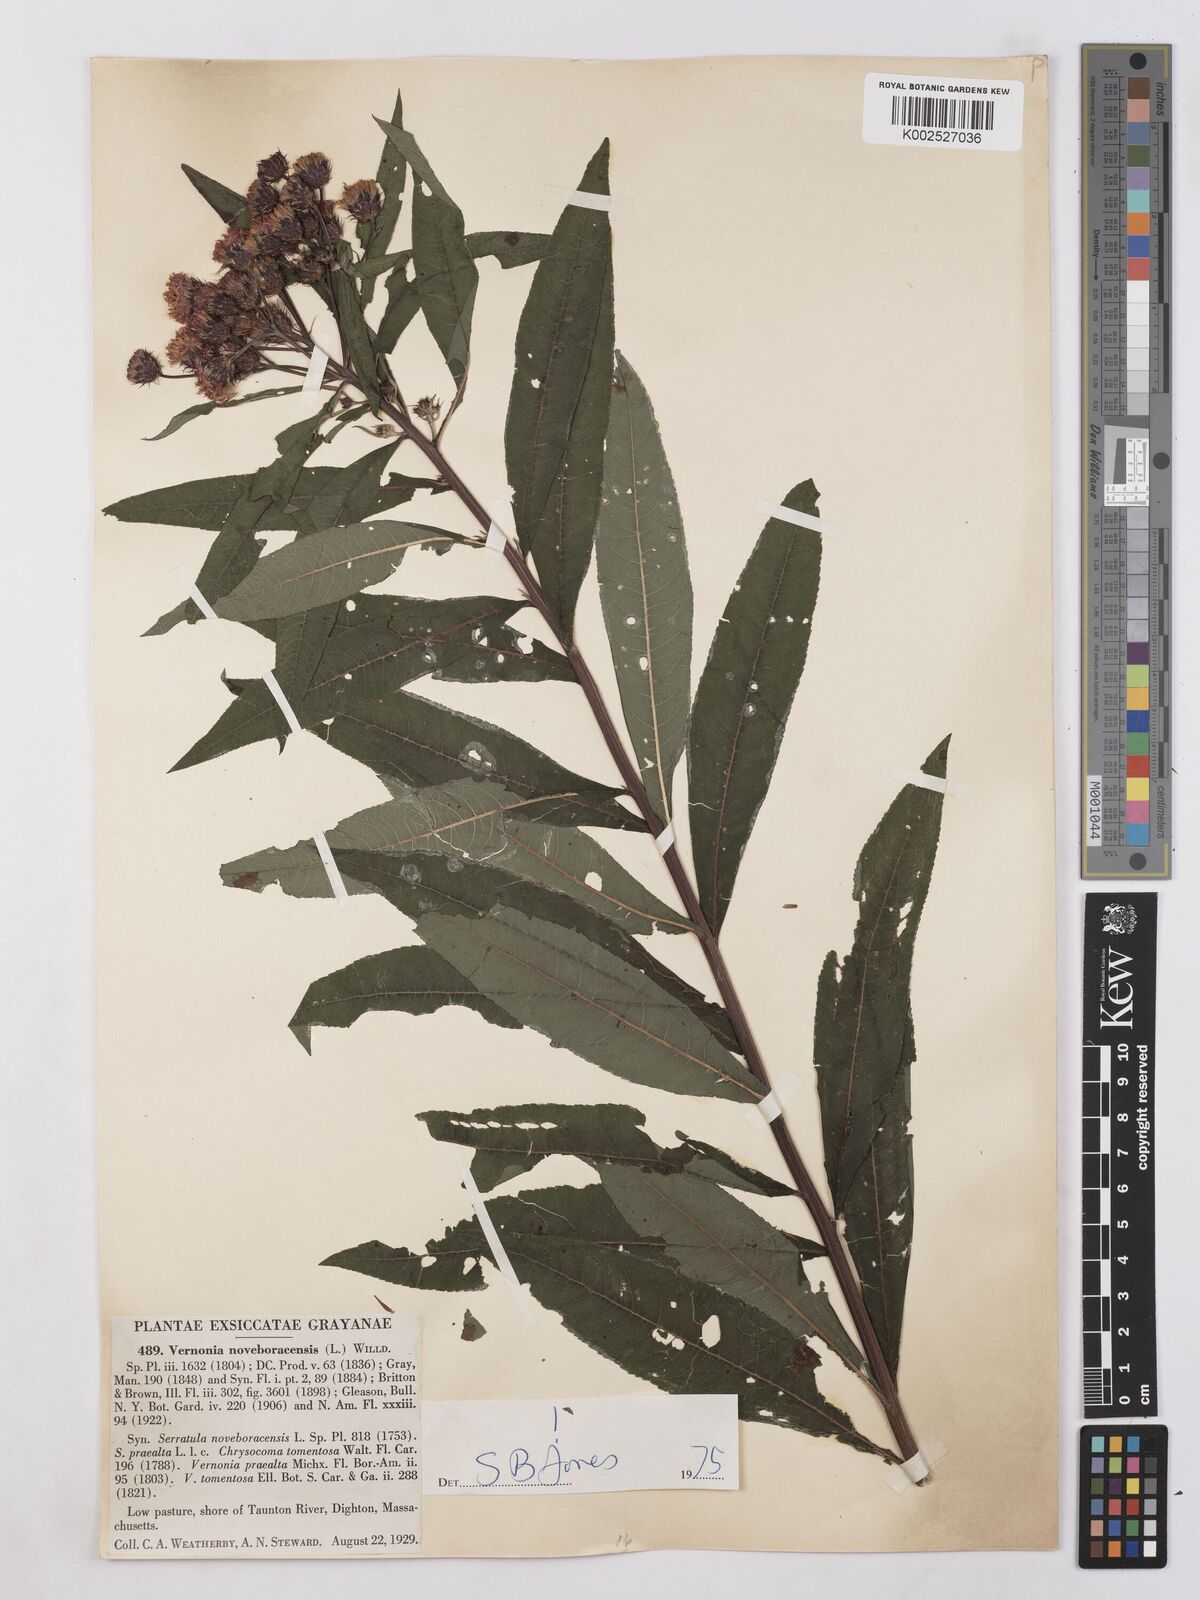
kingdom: Plantae
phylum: Tracheophyta
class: Magnoliopsida
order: Asterales
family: Asteraceae
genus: Vernonia
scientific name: Vernonia noveboracensis
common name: New york ironweed
